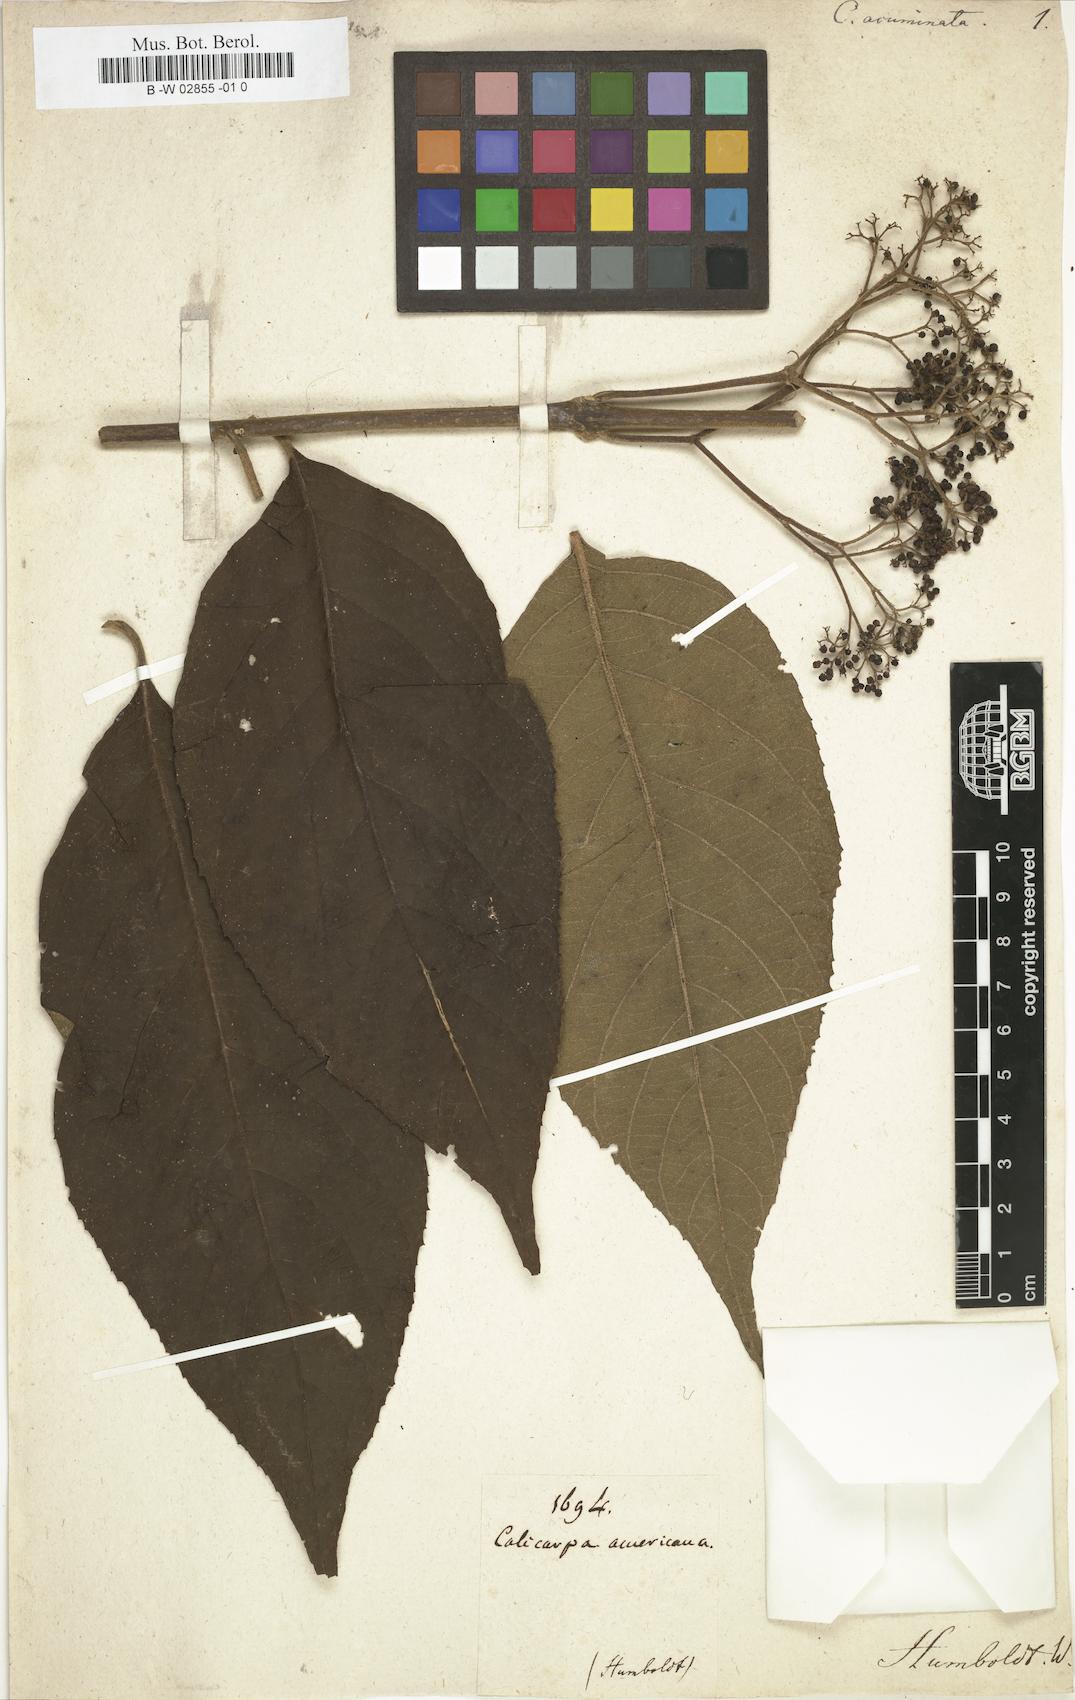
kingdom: Plantae
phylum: Tracheophyta
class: Magnoliopsida
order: Lamiales
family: Lamiaceae
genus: Callicarpa
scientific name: Callicarpa acuminata
